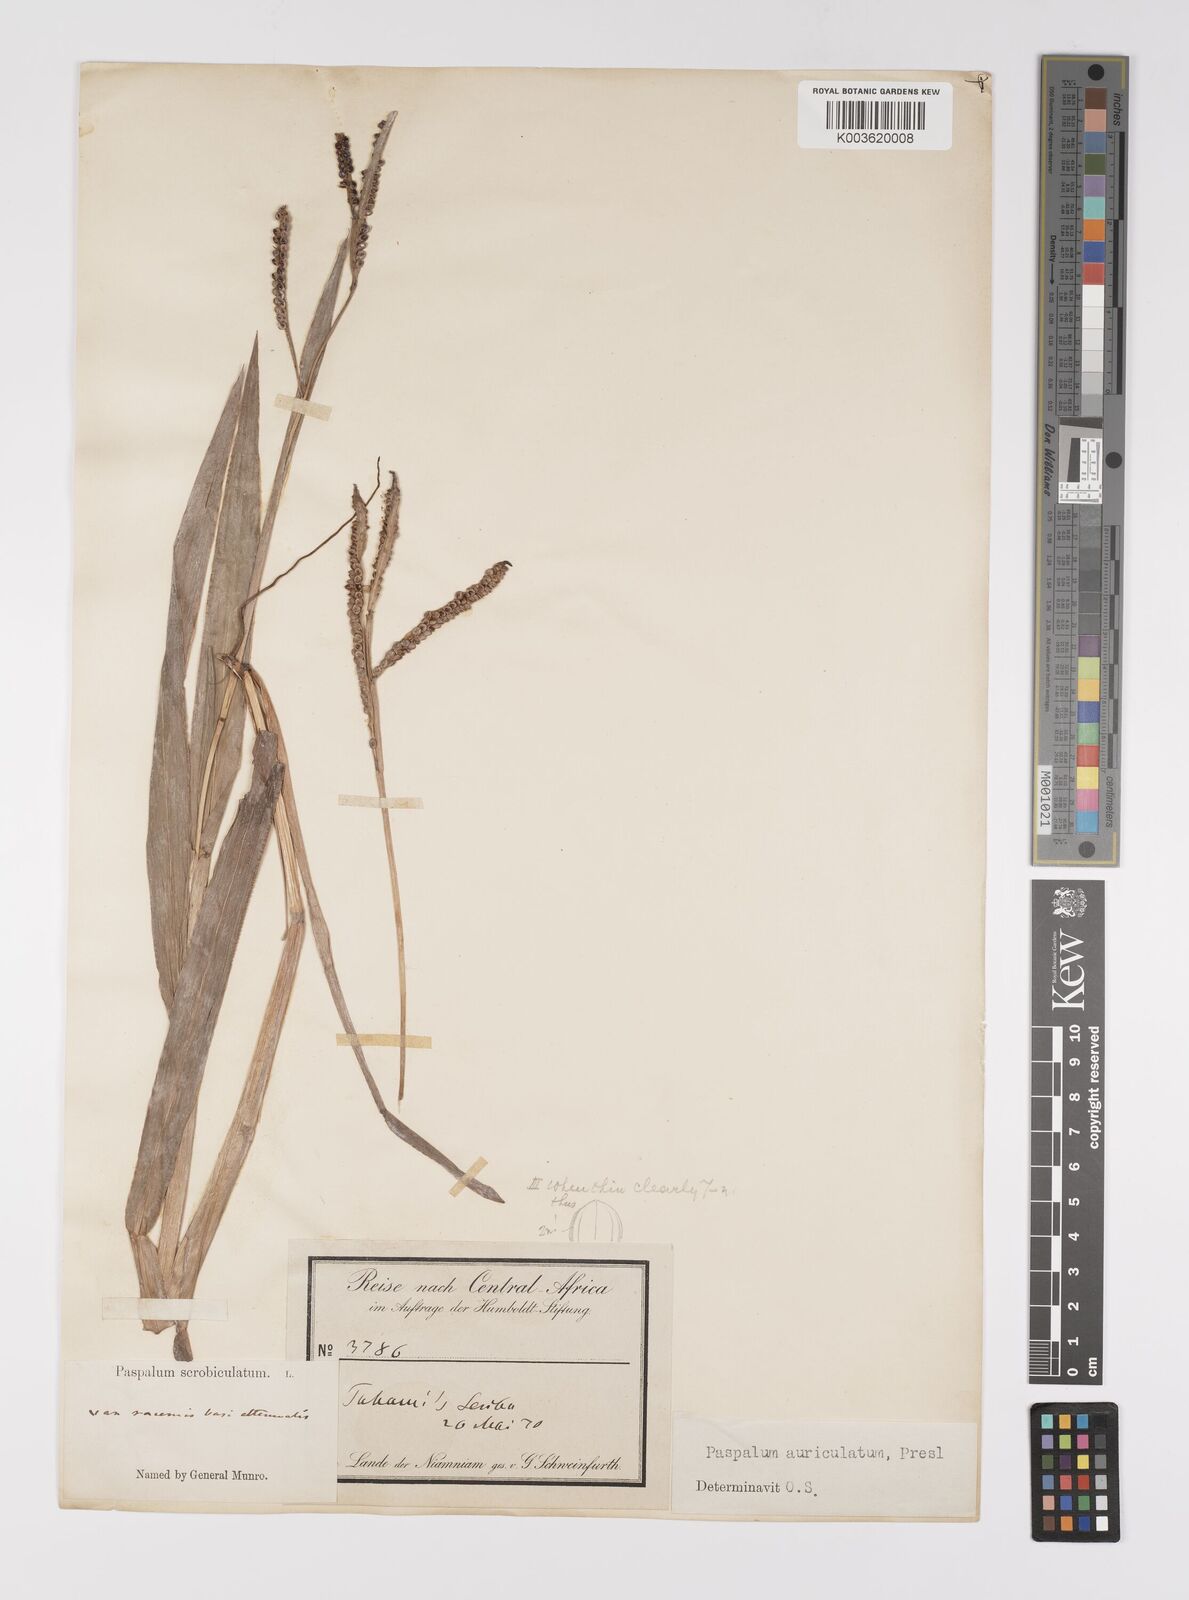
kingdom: Plantae
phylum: Tracheophyta
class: Liliopsida
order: Poales
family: Poaceae
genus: Paspalum
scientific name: Paspalum lamprocaryon
